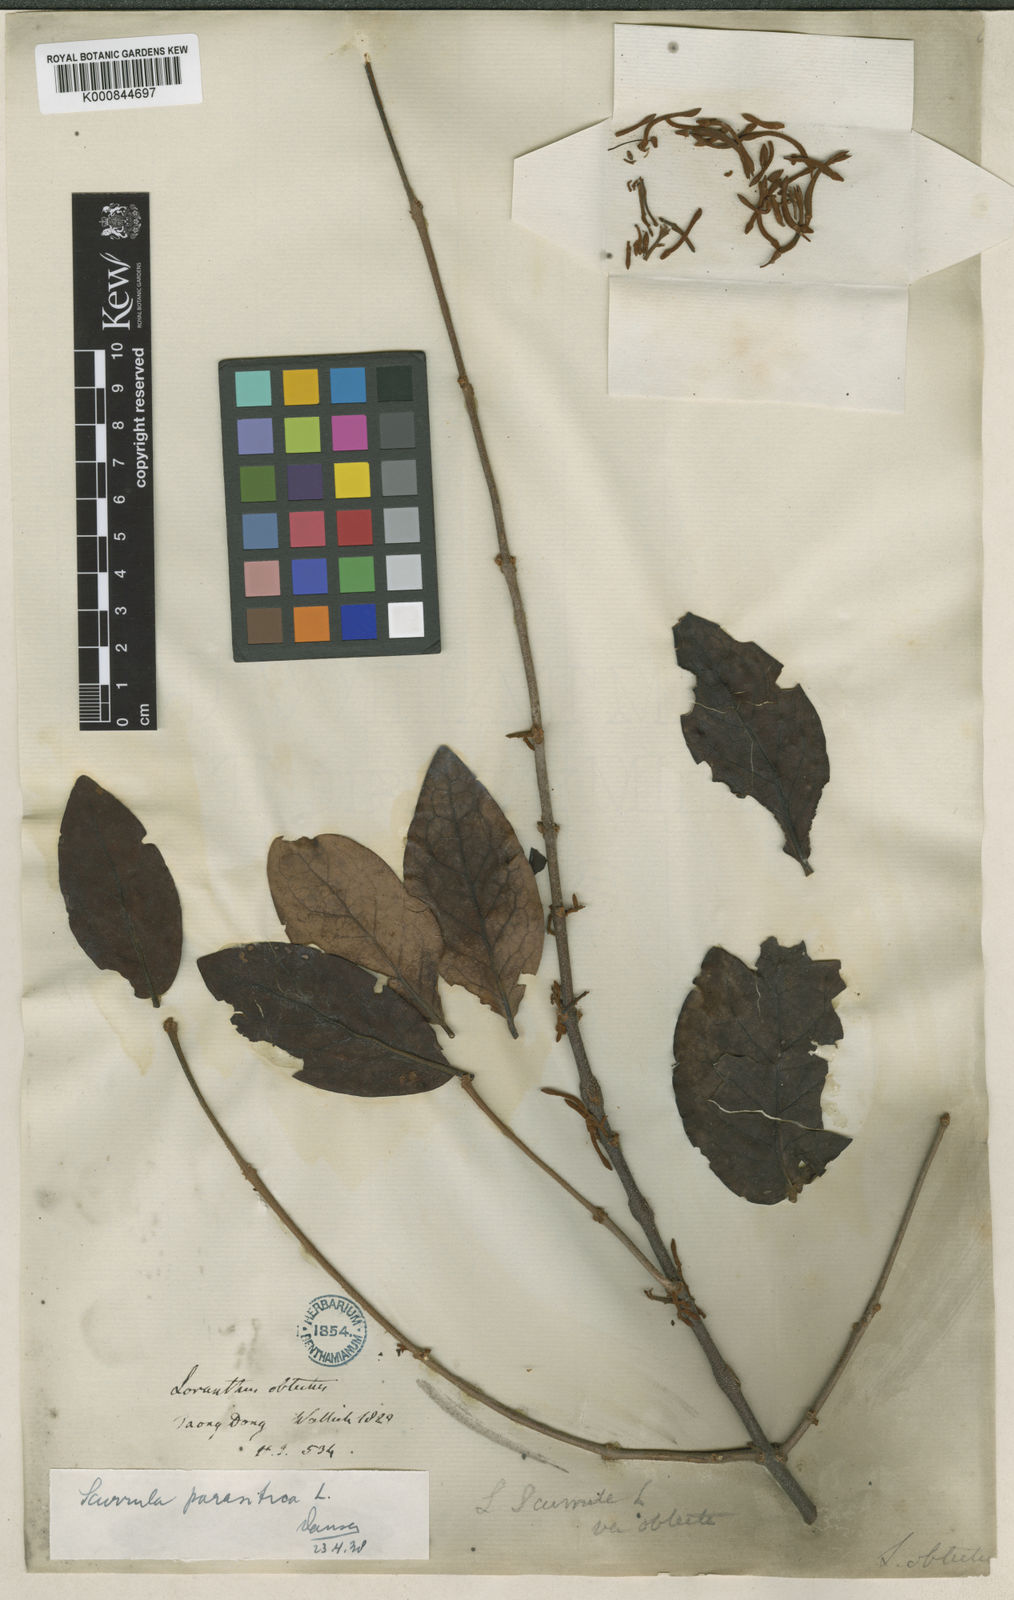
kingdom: Plantae
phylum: Tracheophyta
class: Magnoliopsida
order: Santalales
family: Loranthaceae
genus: Scurrula
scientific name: Scurrula parasitica
